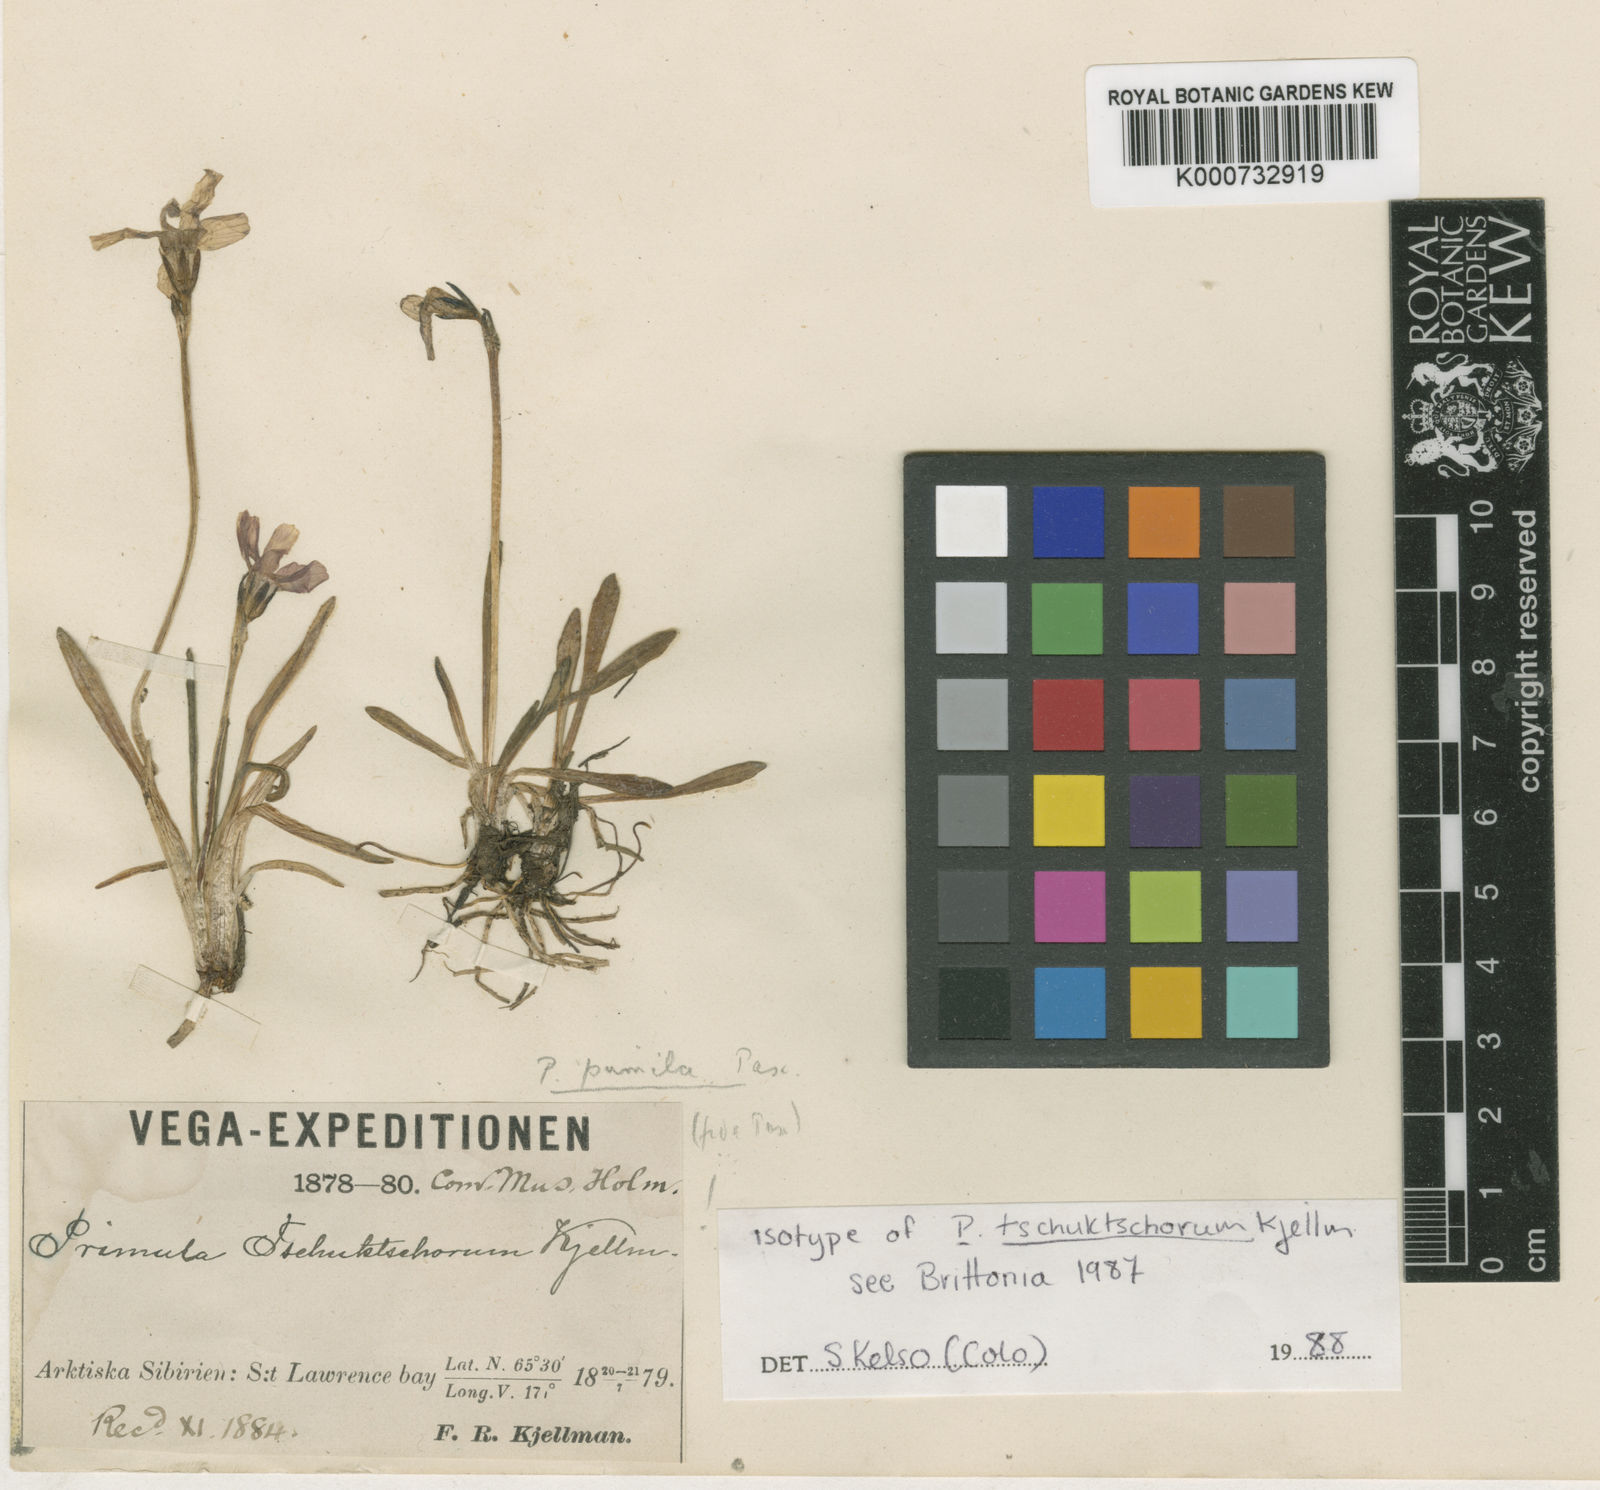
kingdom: Plantae
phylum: Tracheophyta
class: Magnoliopsida
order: Ericales
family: Primulaceae
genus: Primula
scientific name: Primula tschuktschorum
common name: Chukchi primrose
